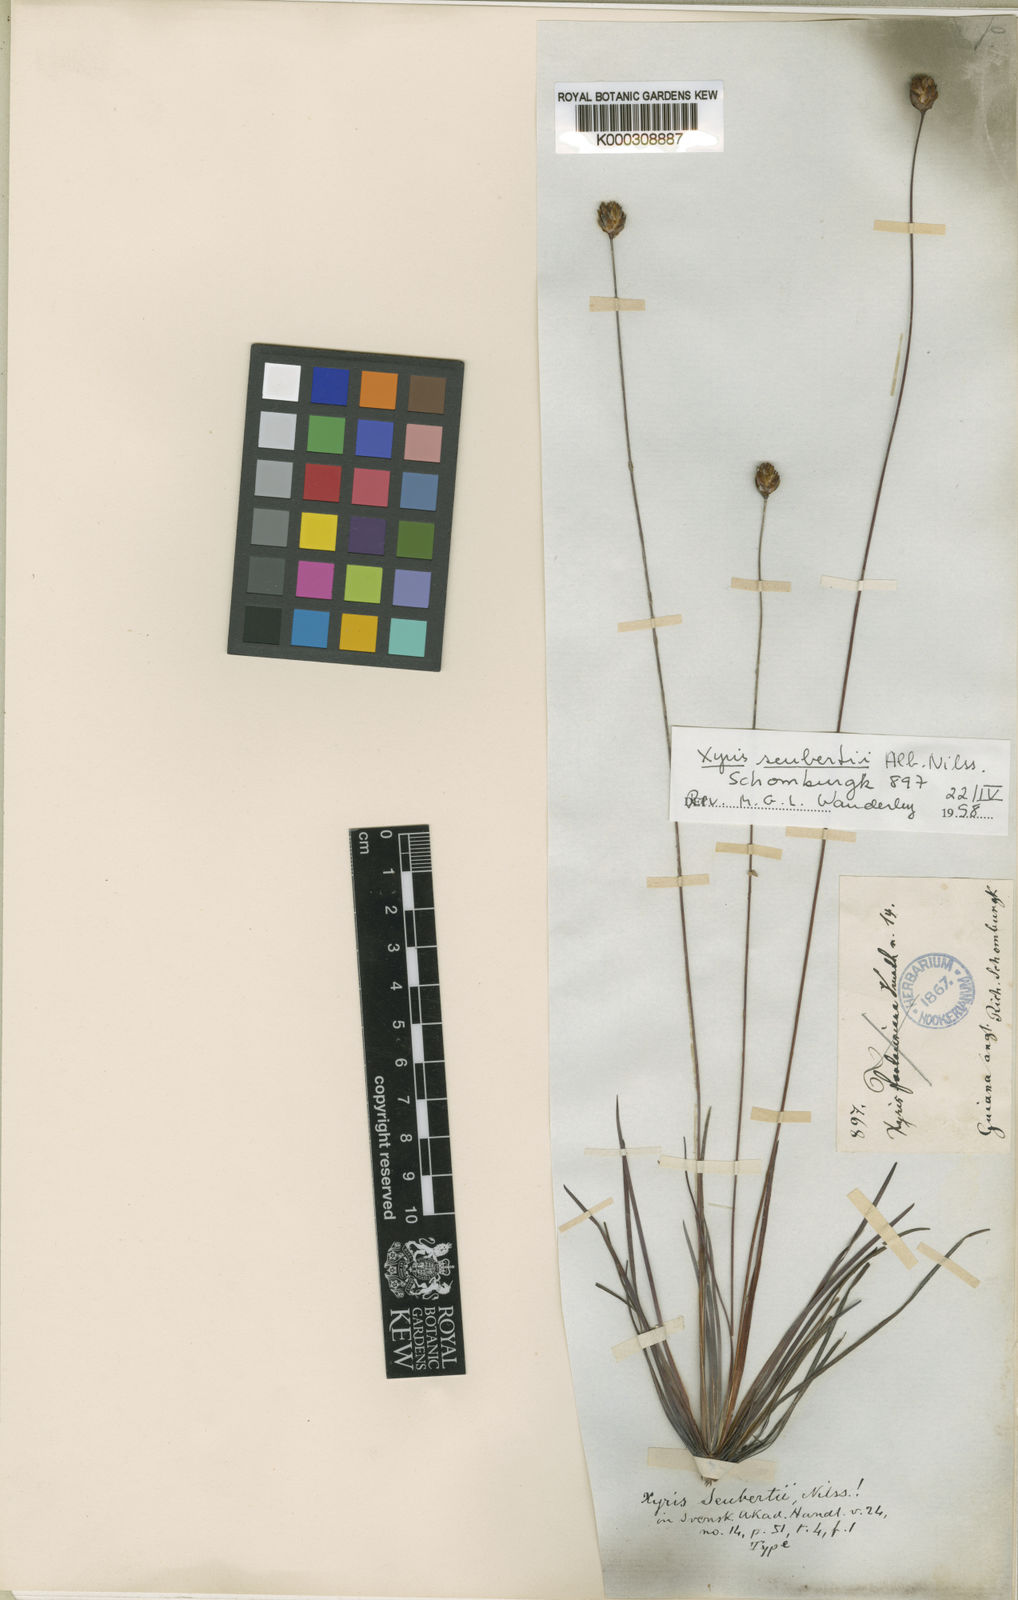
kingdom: Plantae
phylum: Tracheophyta
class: Liliopsida
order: Poales
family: Xyridaceae
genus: Xyris
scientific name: Xyris seubertii
